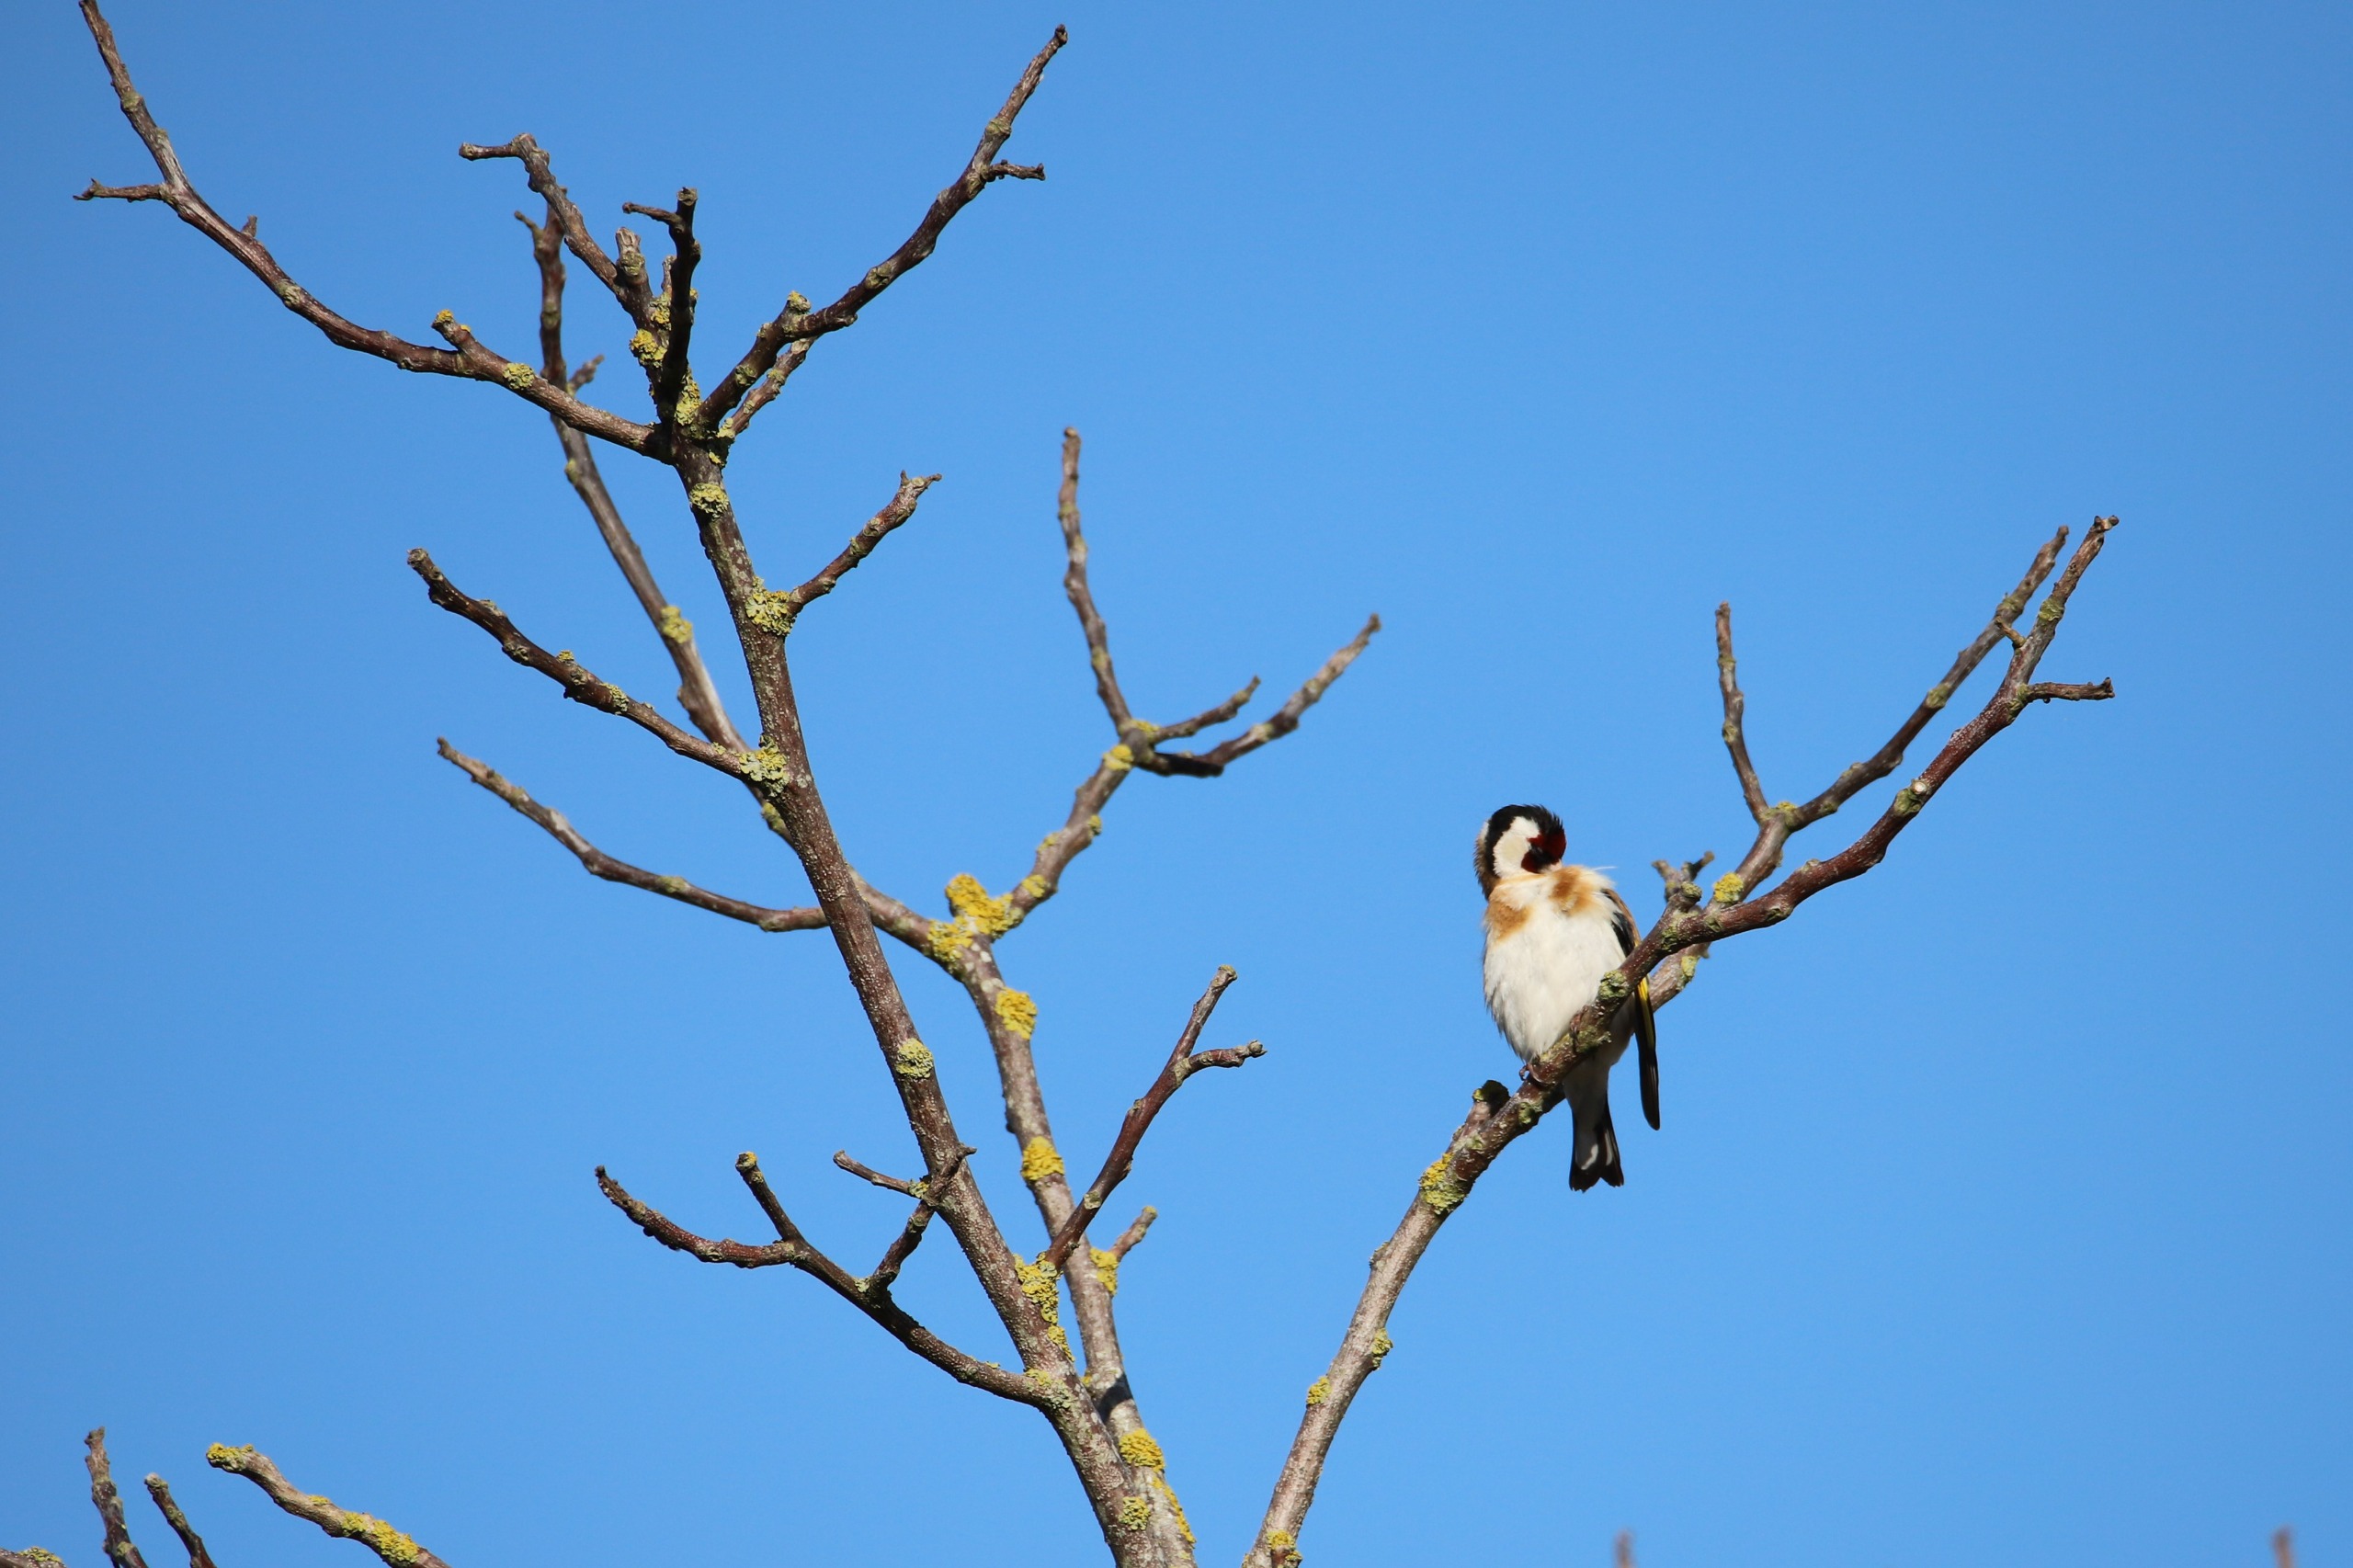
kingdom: Animalia
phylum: Chordata
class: Aves
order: Passeriformes
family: Fringillidae
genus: Carduelis
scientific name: Carduelis carduelis
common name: Stillits
